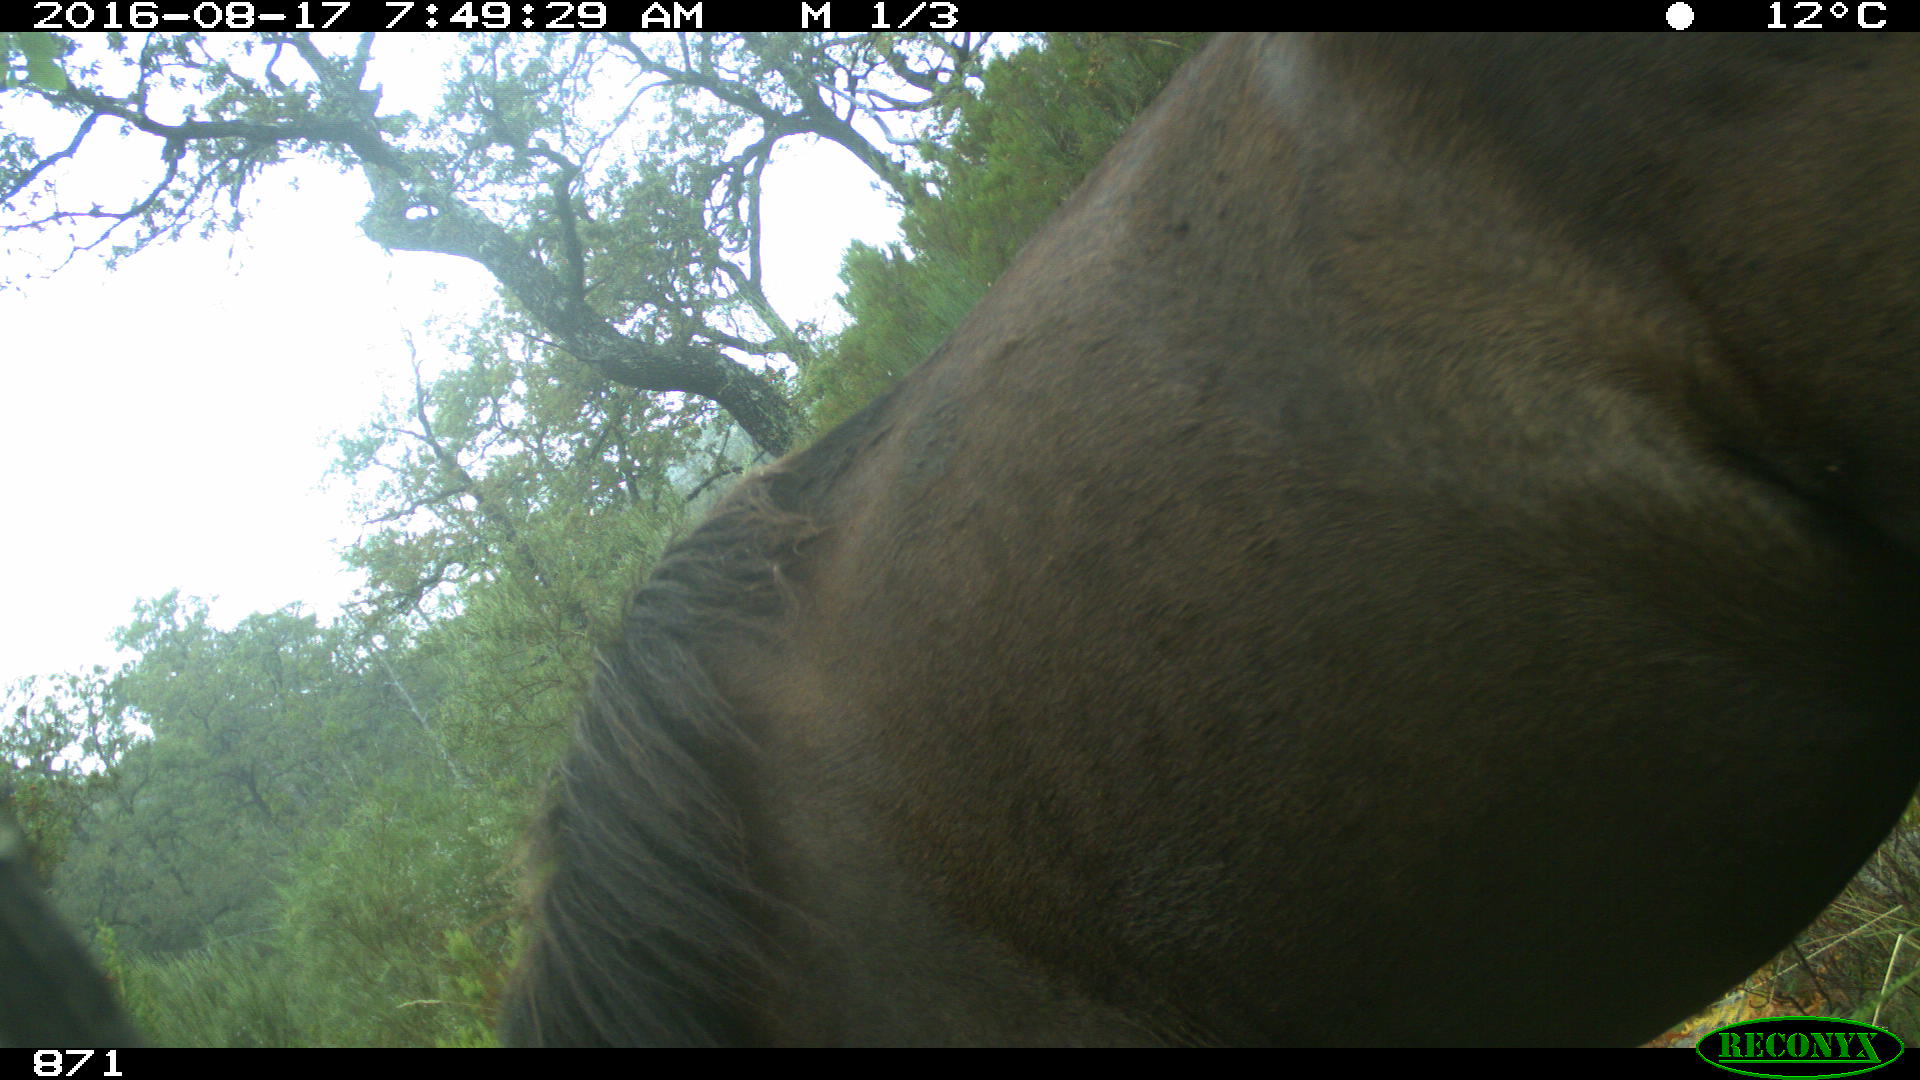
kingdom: Animalia
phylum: Chordata
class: Mammalia
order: Perissodactyla
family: Equidae
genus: Equus
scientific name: Equus caballus
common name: Horse
